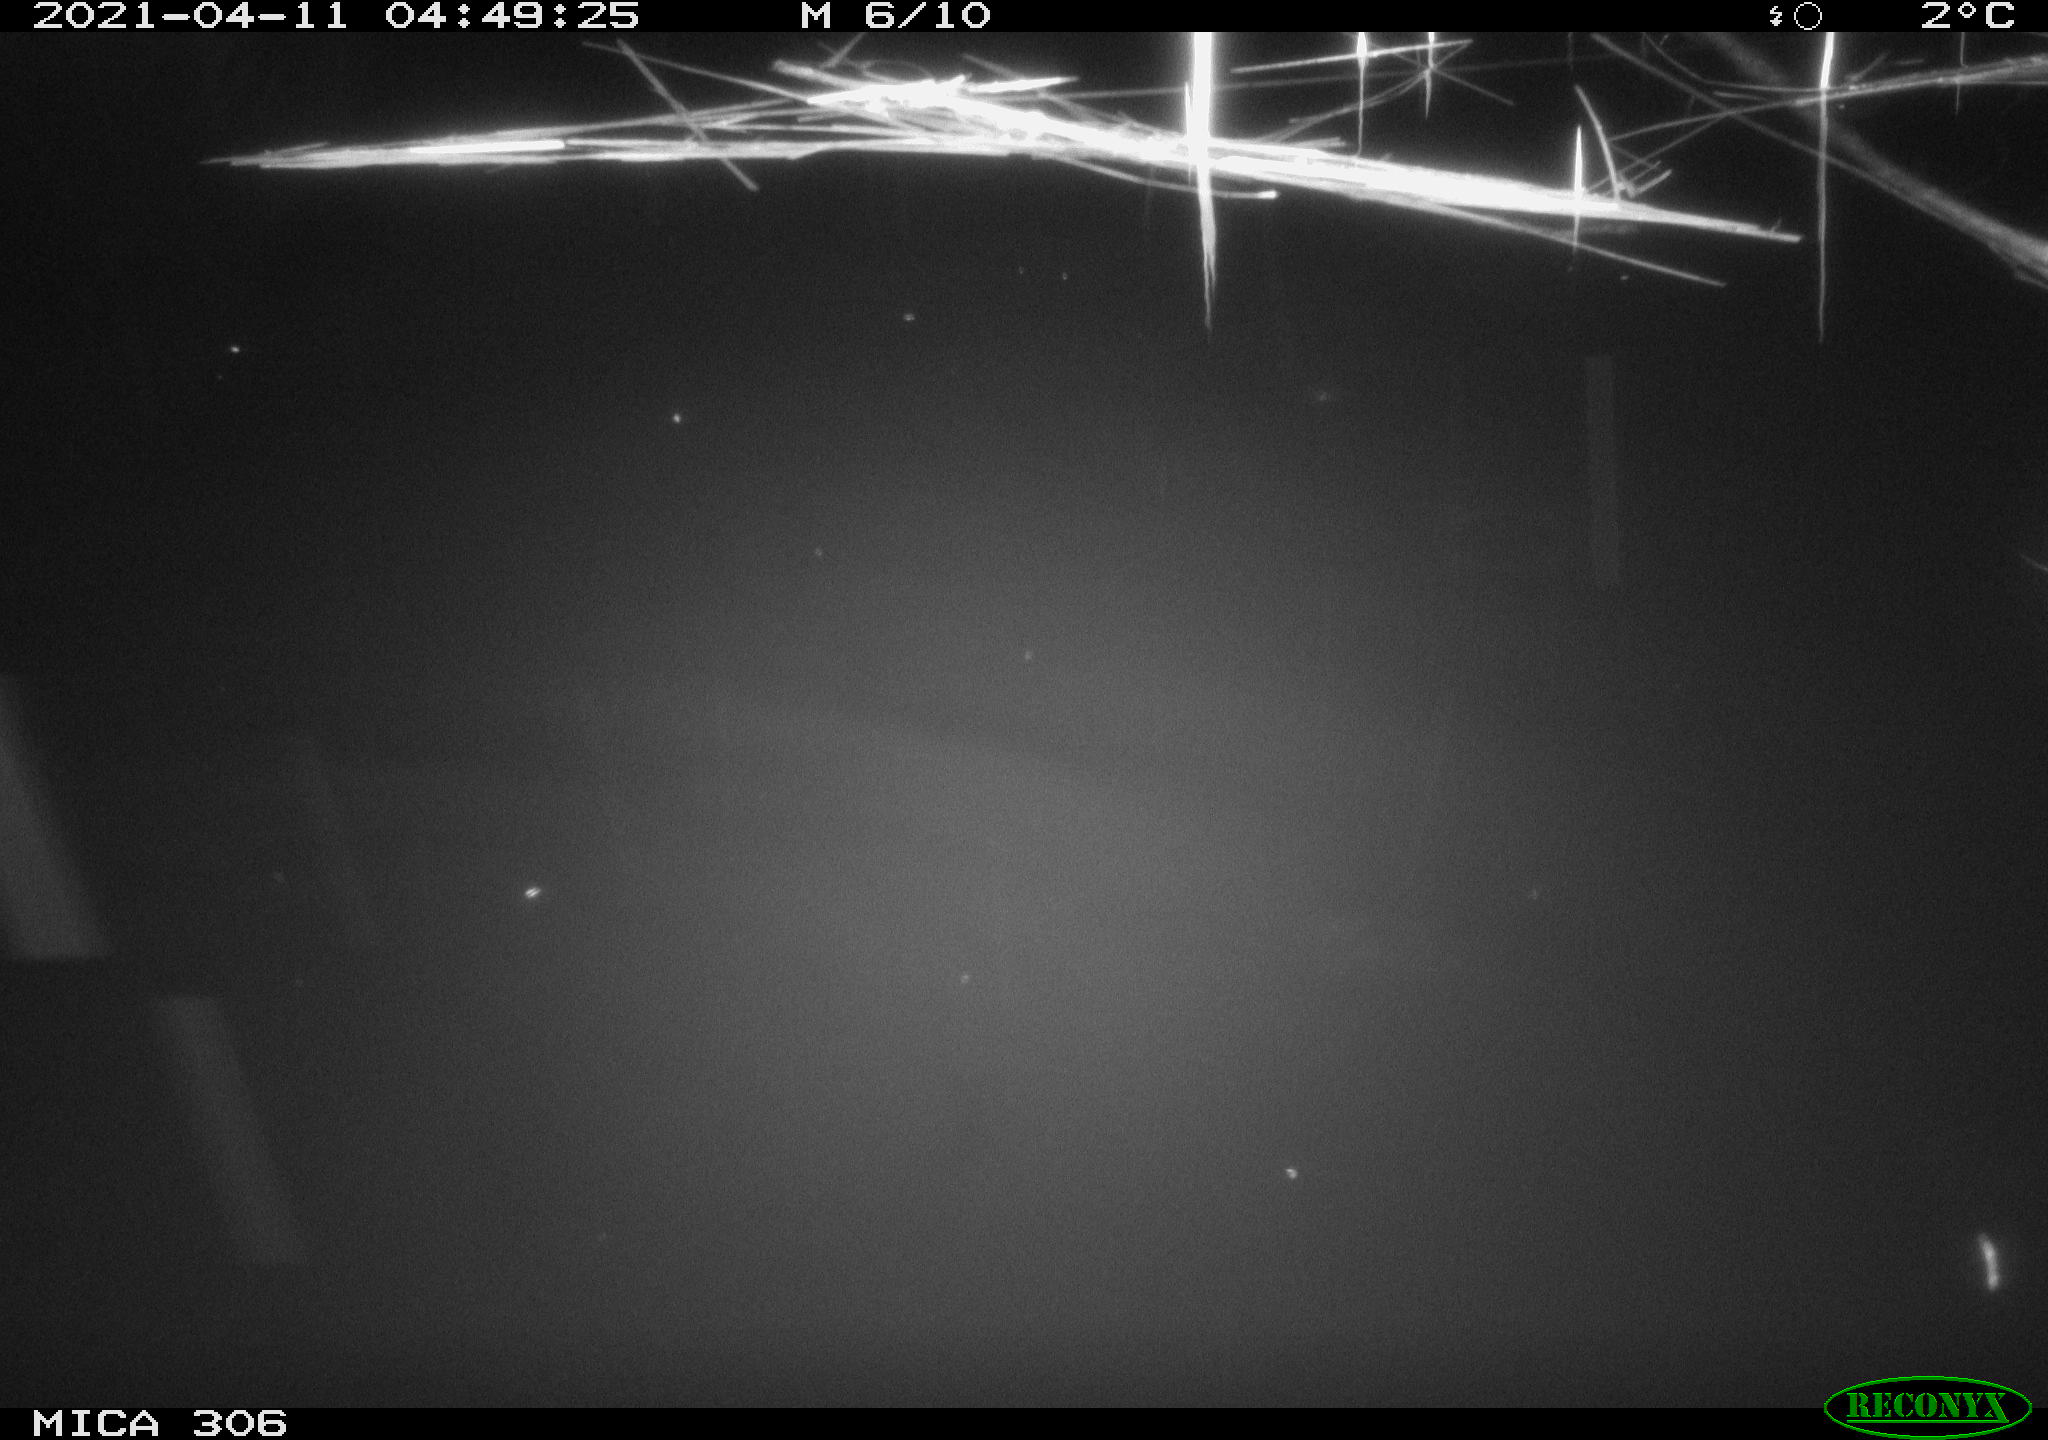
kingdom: Animalia
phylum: Chordata
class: Aves
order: Gruiformes
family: Rallidae
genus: Gallinula
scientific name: Gallinula chloropus
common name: Common moorhen
